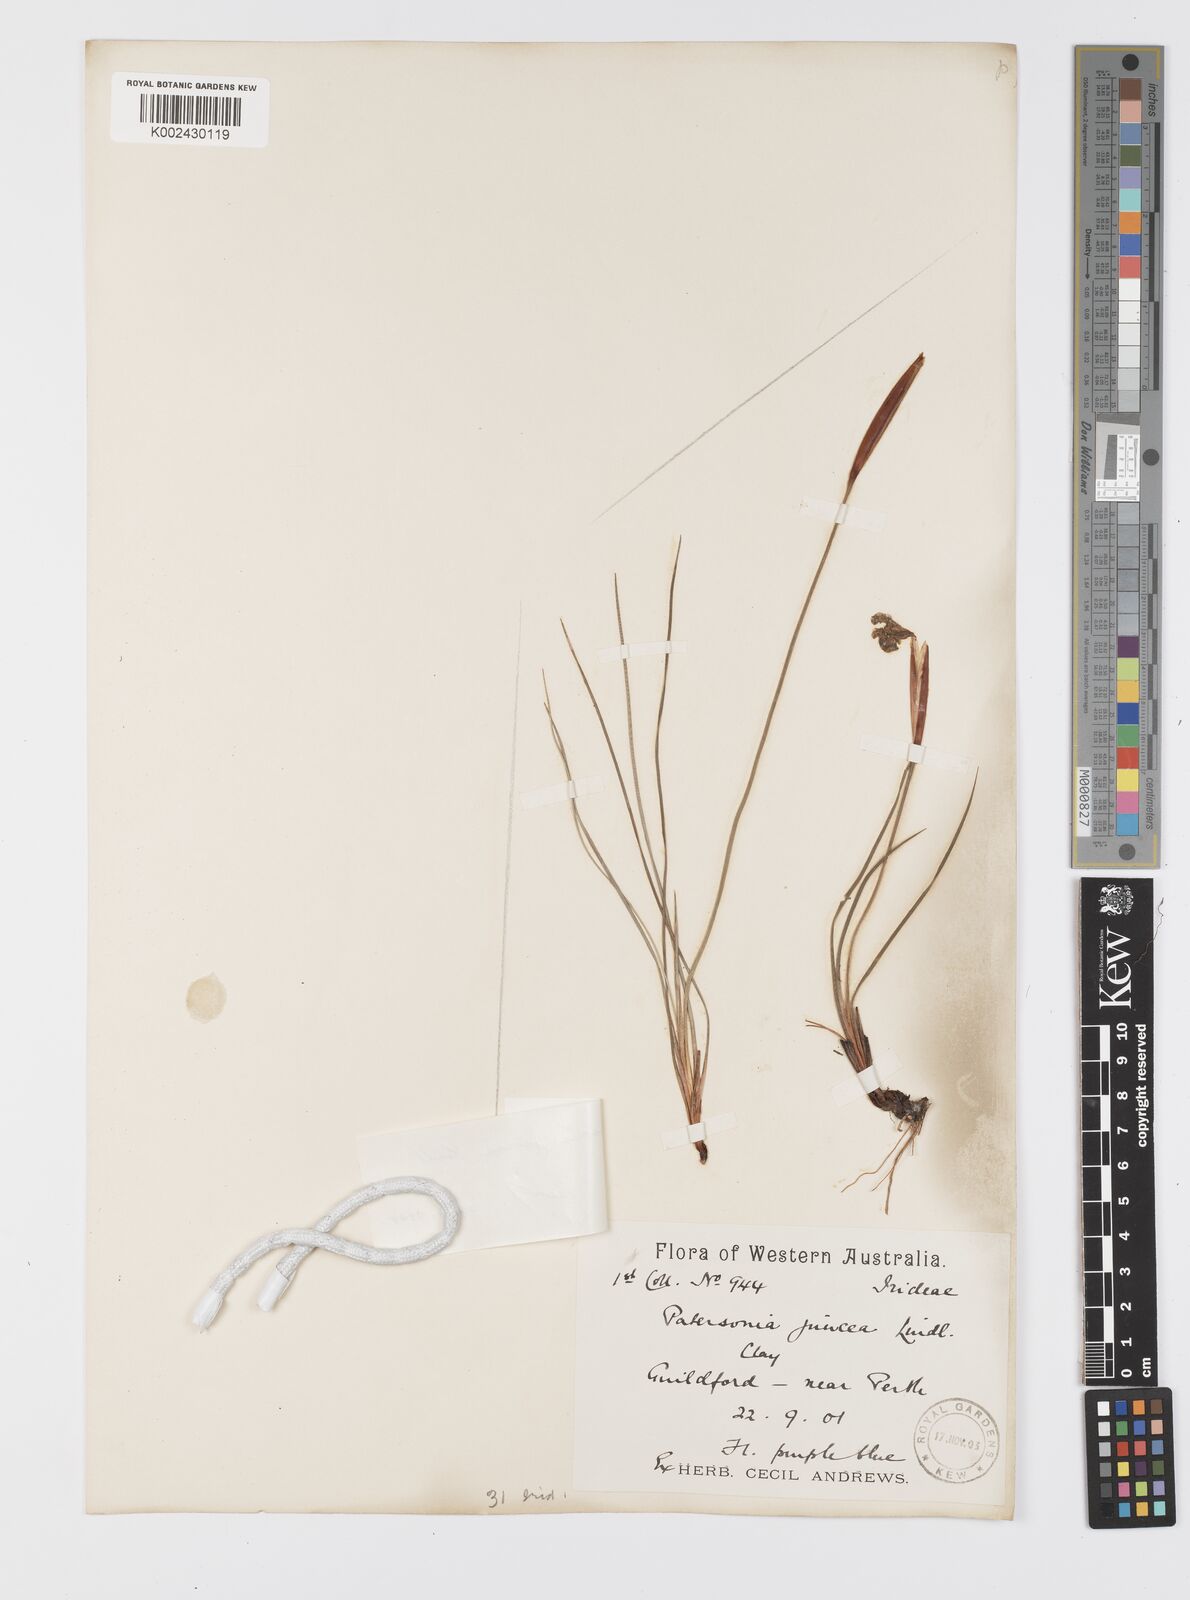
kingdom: Plantae
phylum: Tracheophyta
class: Liliopsida
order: Asparagales
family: Iridaceae
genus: Patersonia
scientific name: Patersonia juncea
